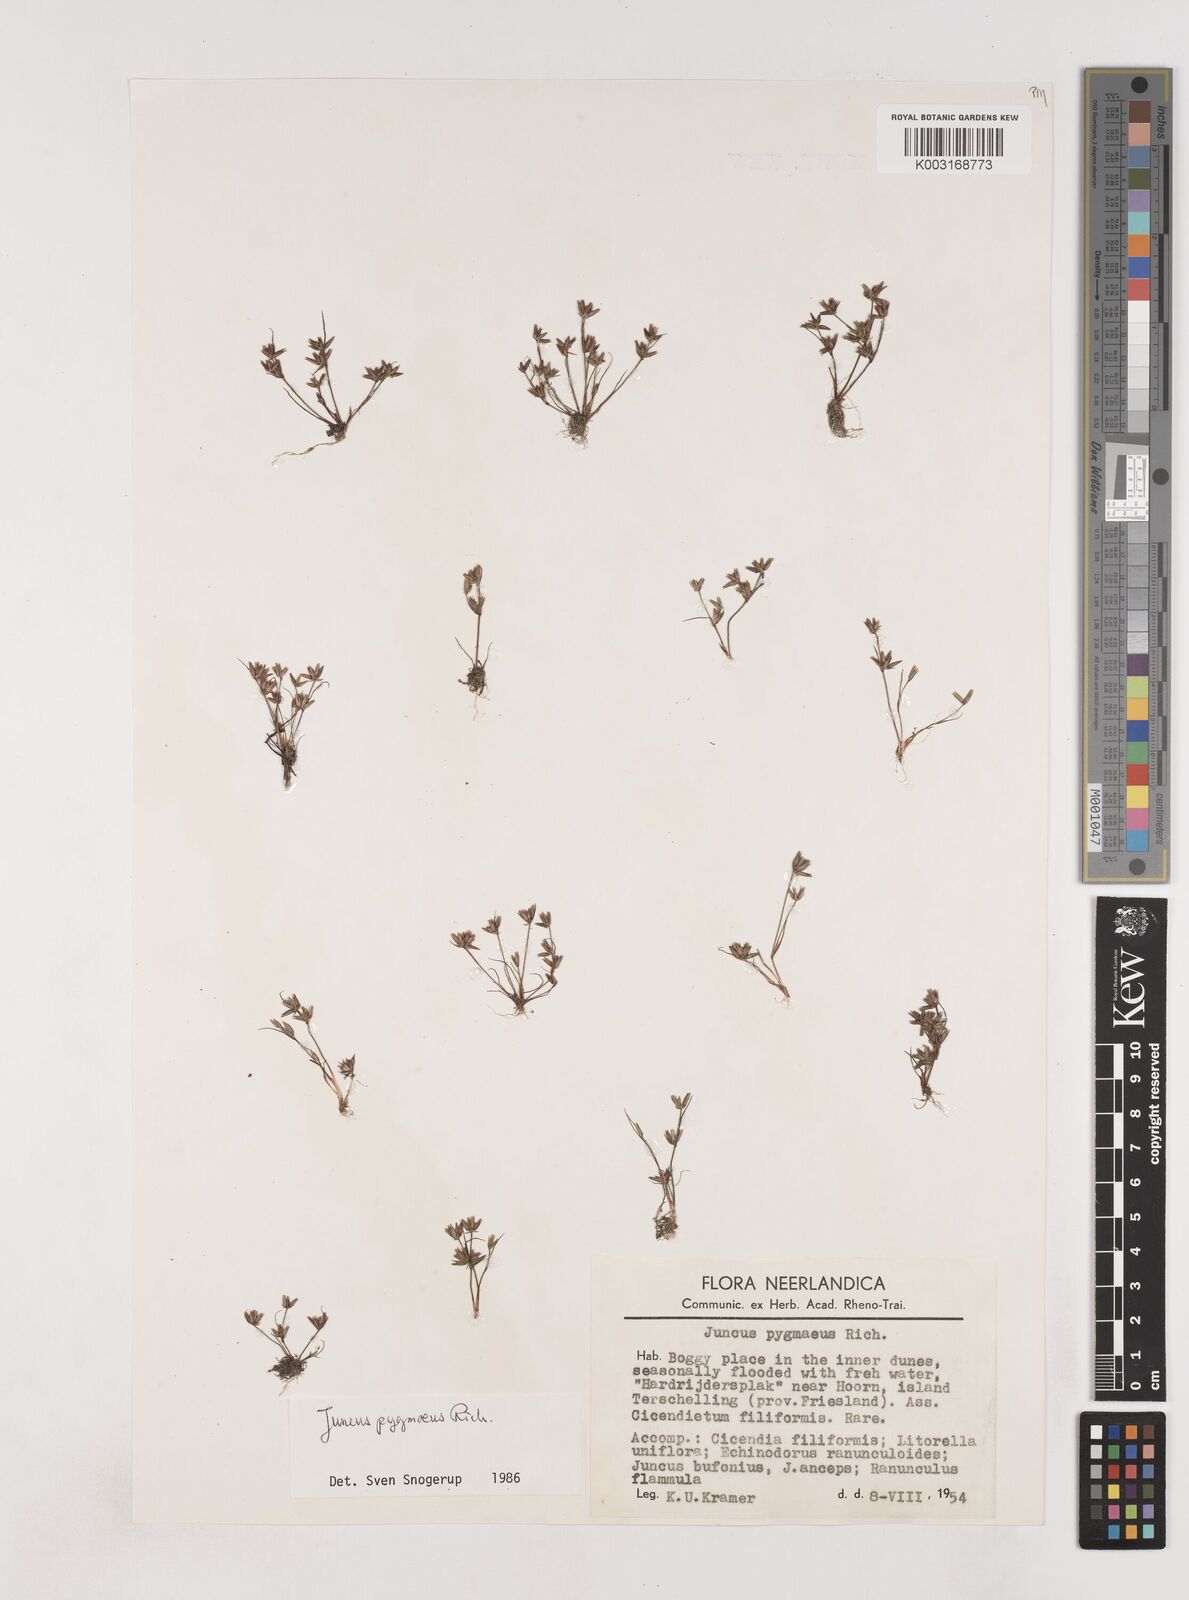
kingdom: Plantae
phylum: Tracheophyta
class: Liliopsida
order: Poales
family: Juncaceae
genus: Juncus
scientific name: Juncus pygmaeus
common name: Pigmy rush
